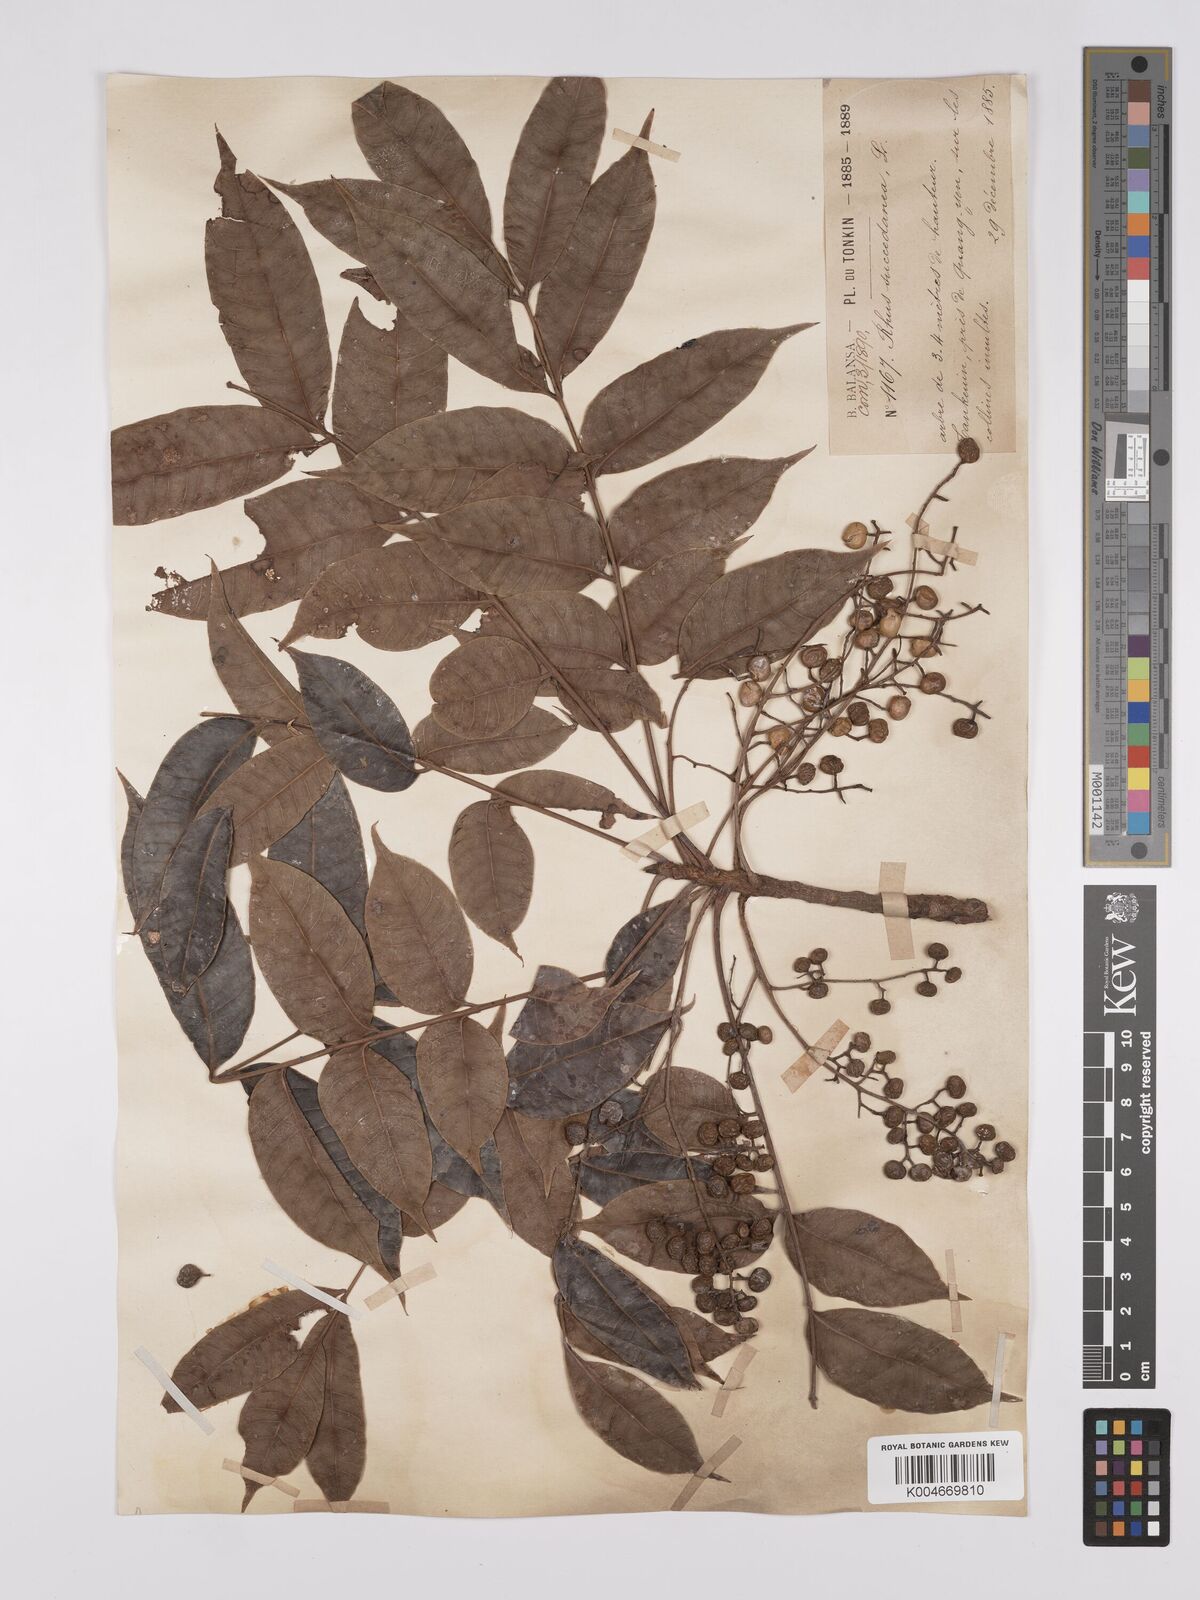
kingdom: Plantae
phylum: Tracheophyta
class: Magnoliopsida
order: Sapindales
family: Anacardiaceae
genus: Toxicodendron
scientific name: Toxicodendron succedaneum
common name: Wax tree
